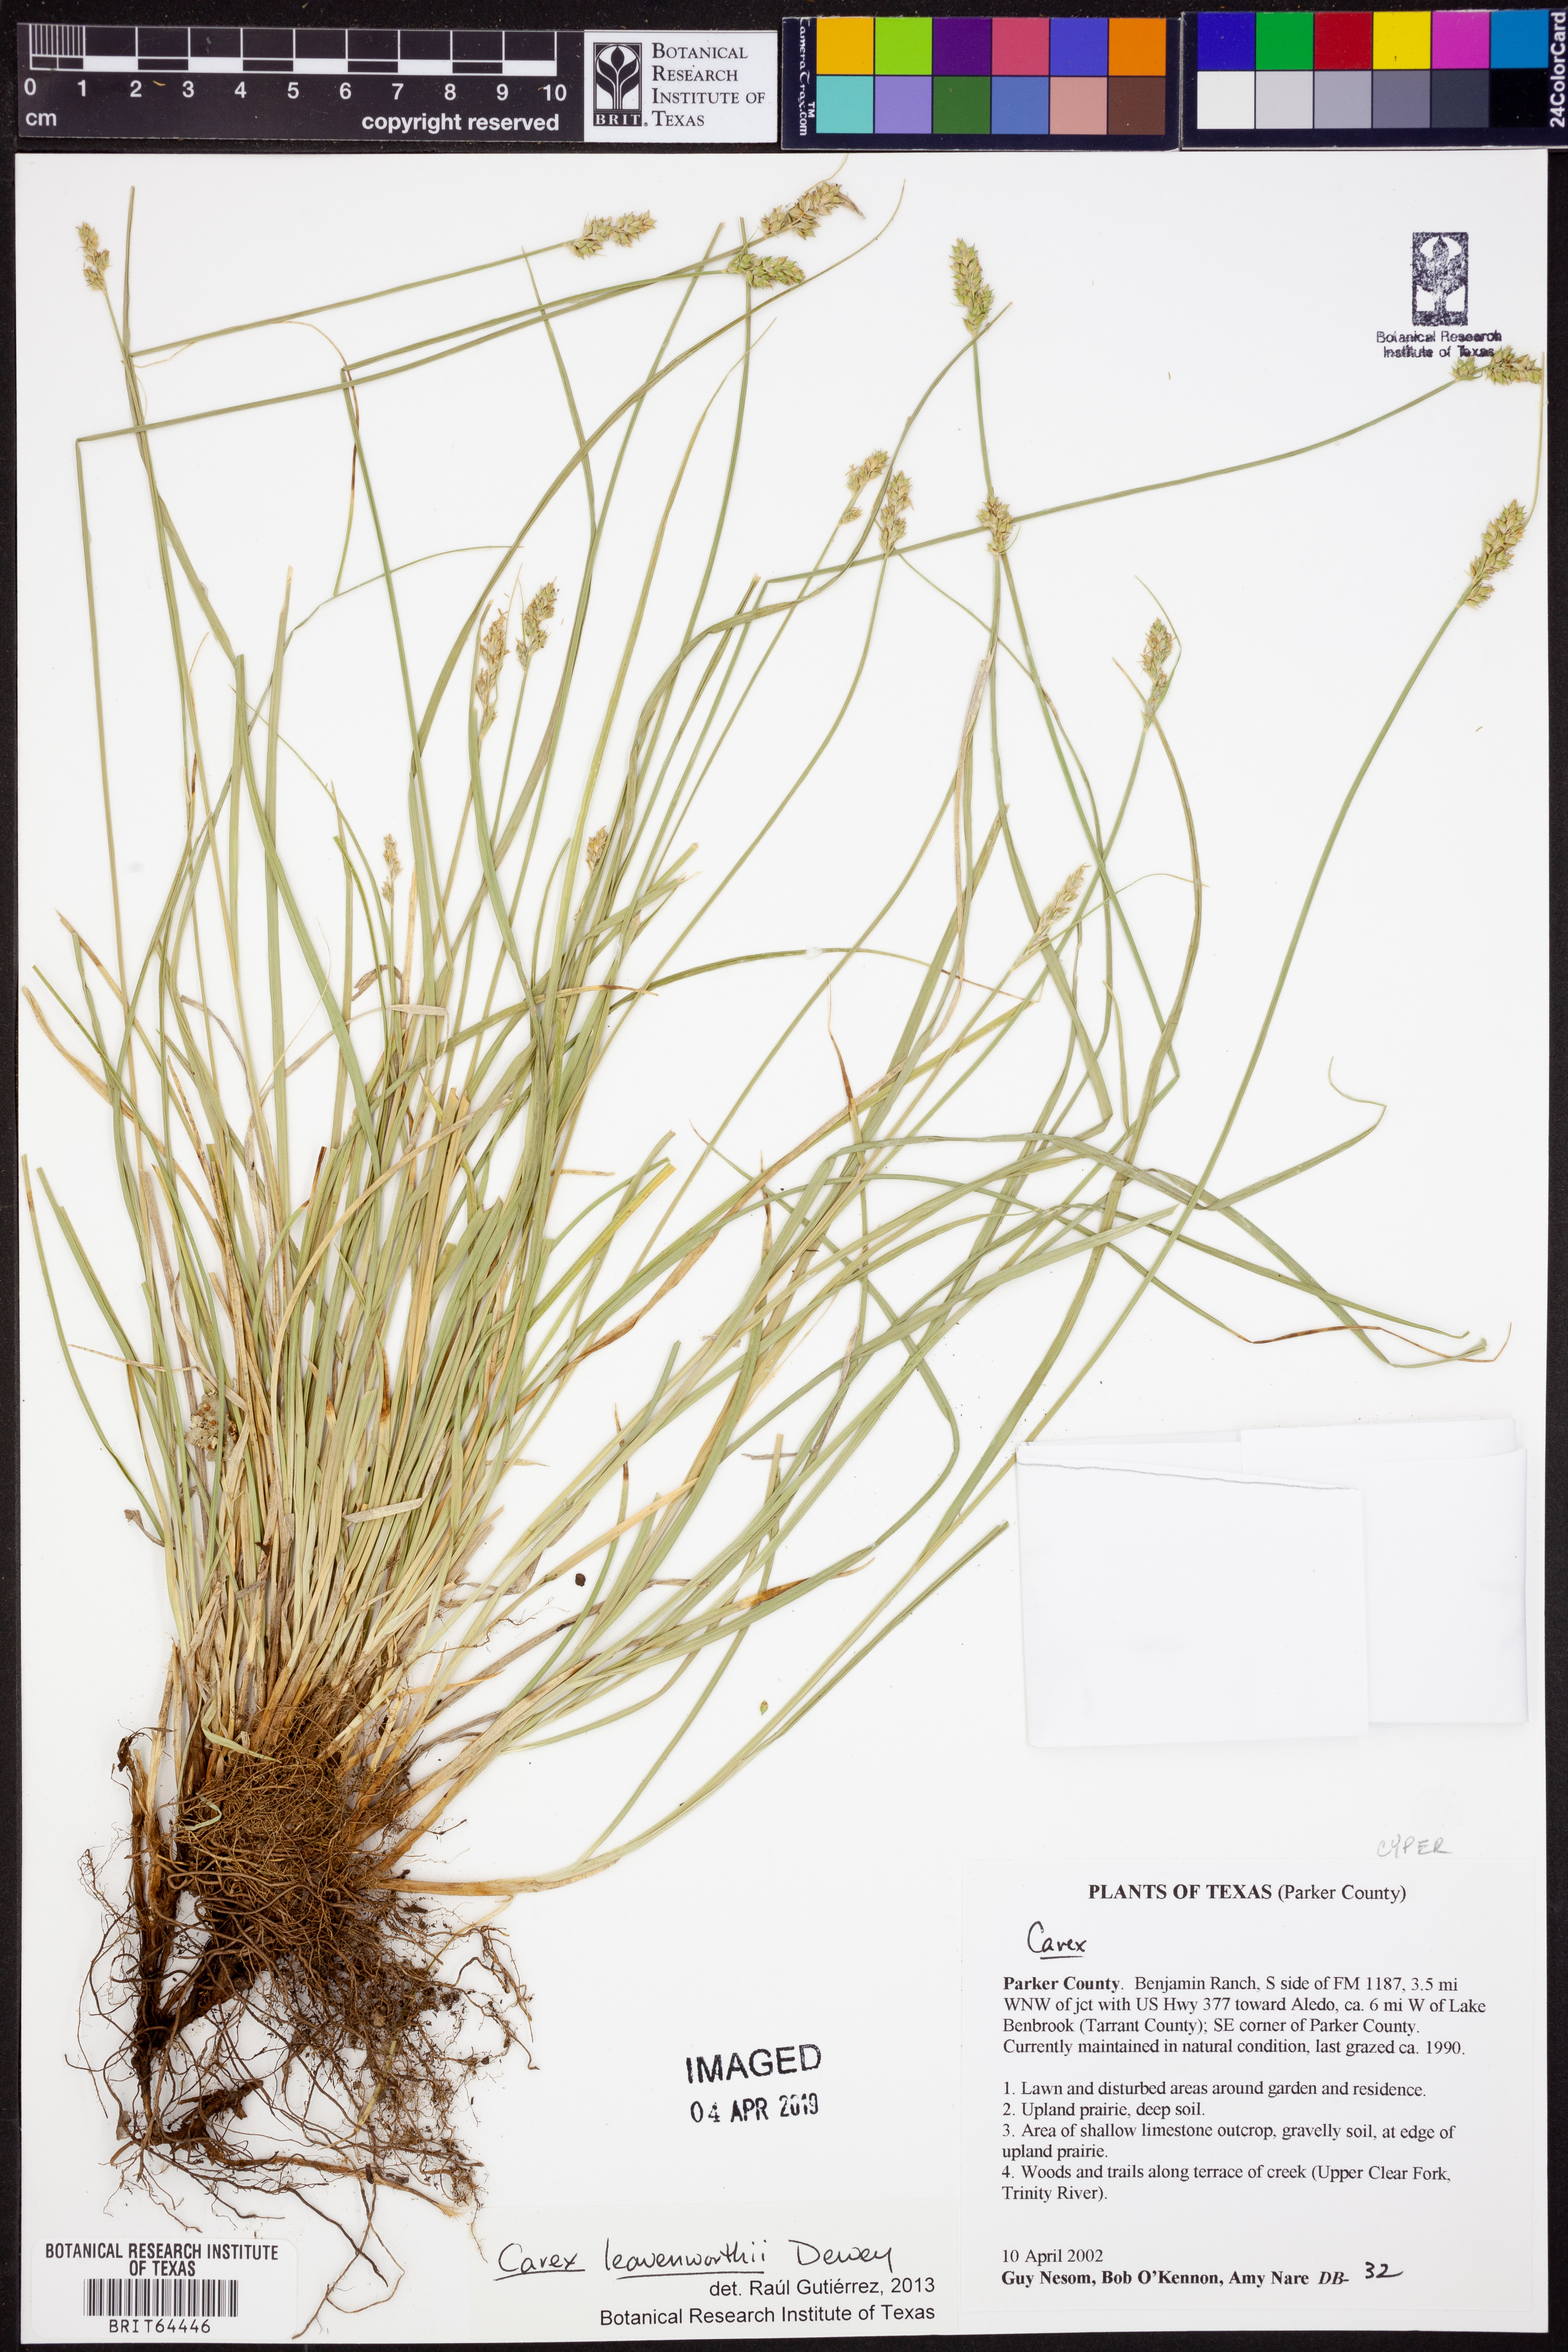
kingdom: Plantae
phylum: Tracheophyta
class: Liliopsida
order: Poales
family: Cyperaceae
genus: Carex
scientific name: Carex leavenworthii
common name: Leavenworth's bracted sedge
